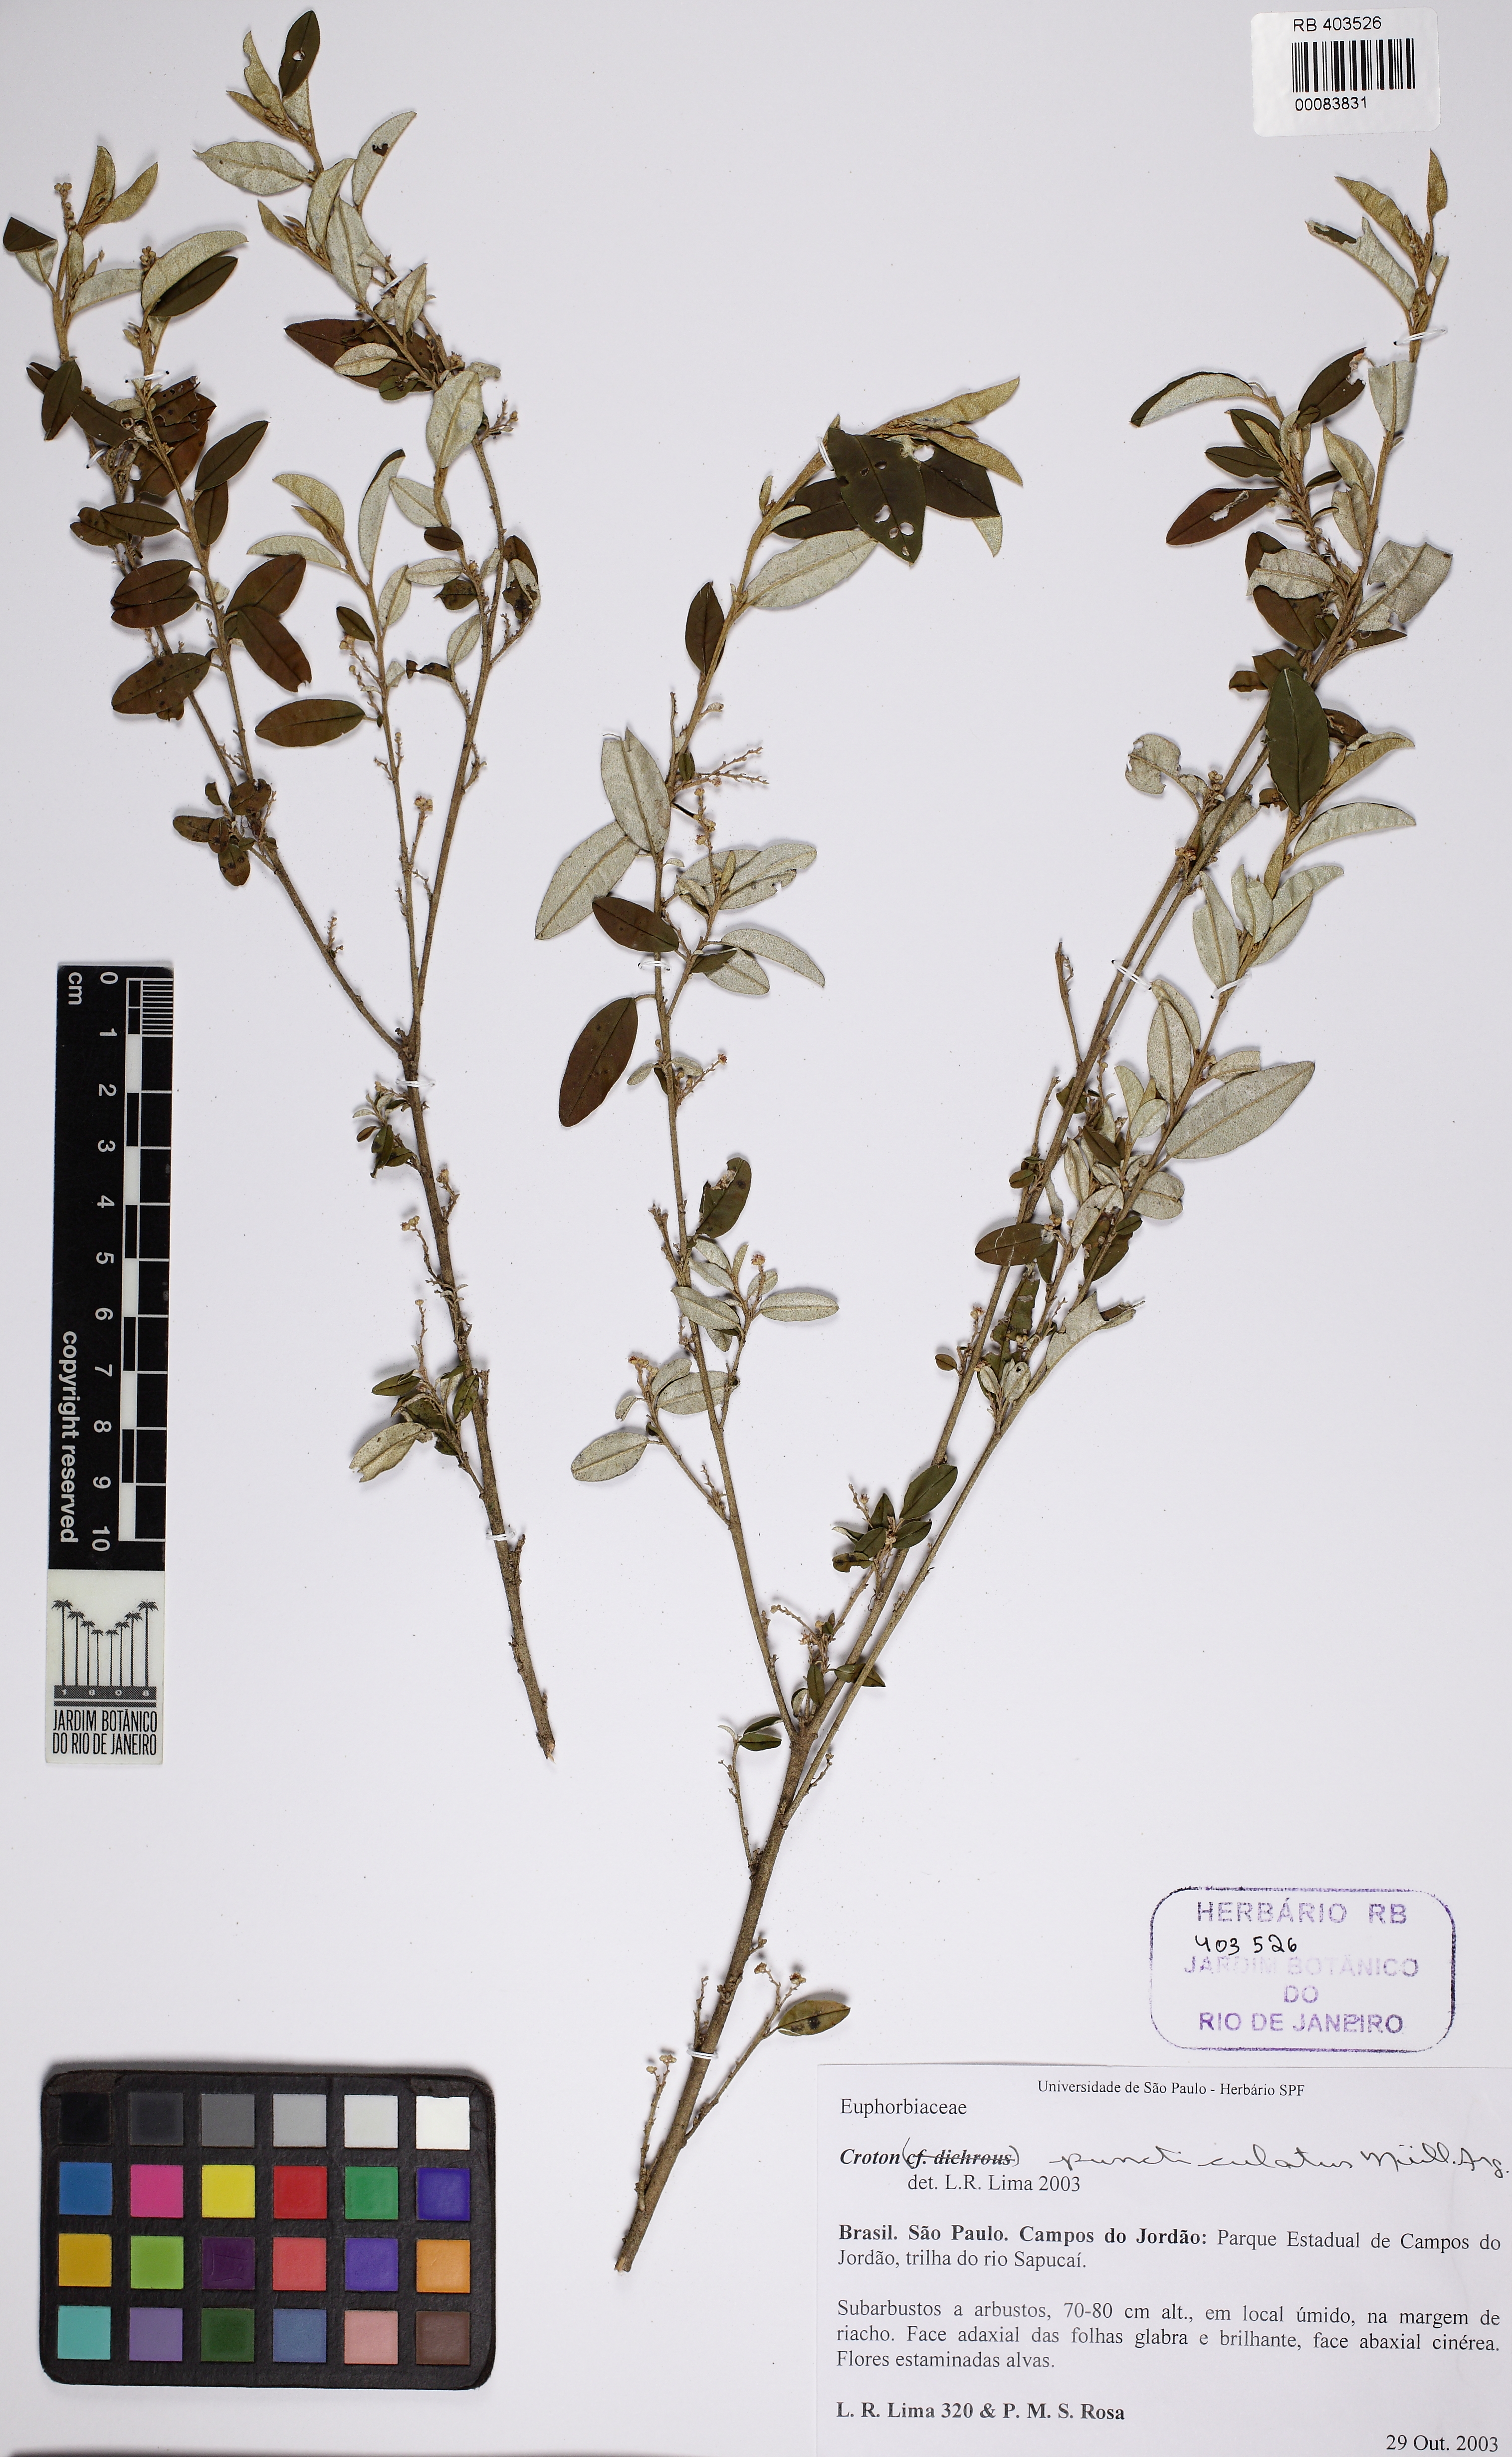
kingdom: Plantae
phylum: Tracheophyta
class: Magnoliopsida
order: Malpighiales
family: Euphorbiaceae
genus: Croton
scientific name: Croton dichrous
